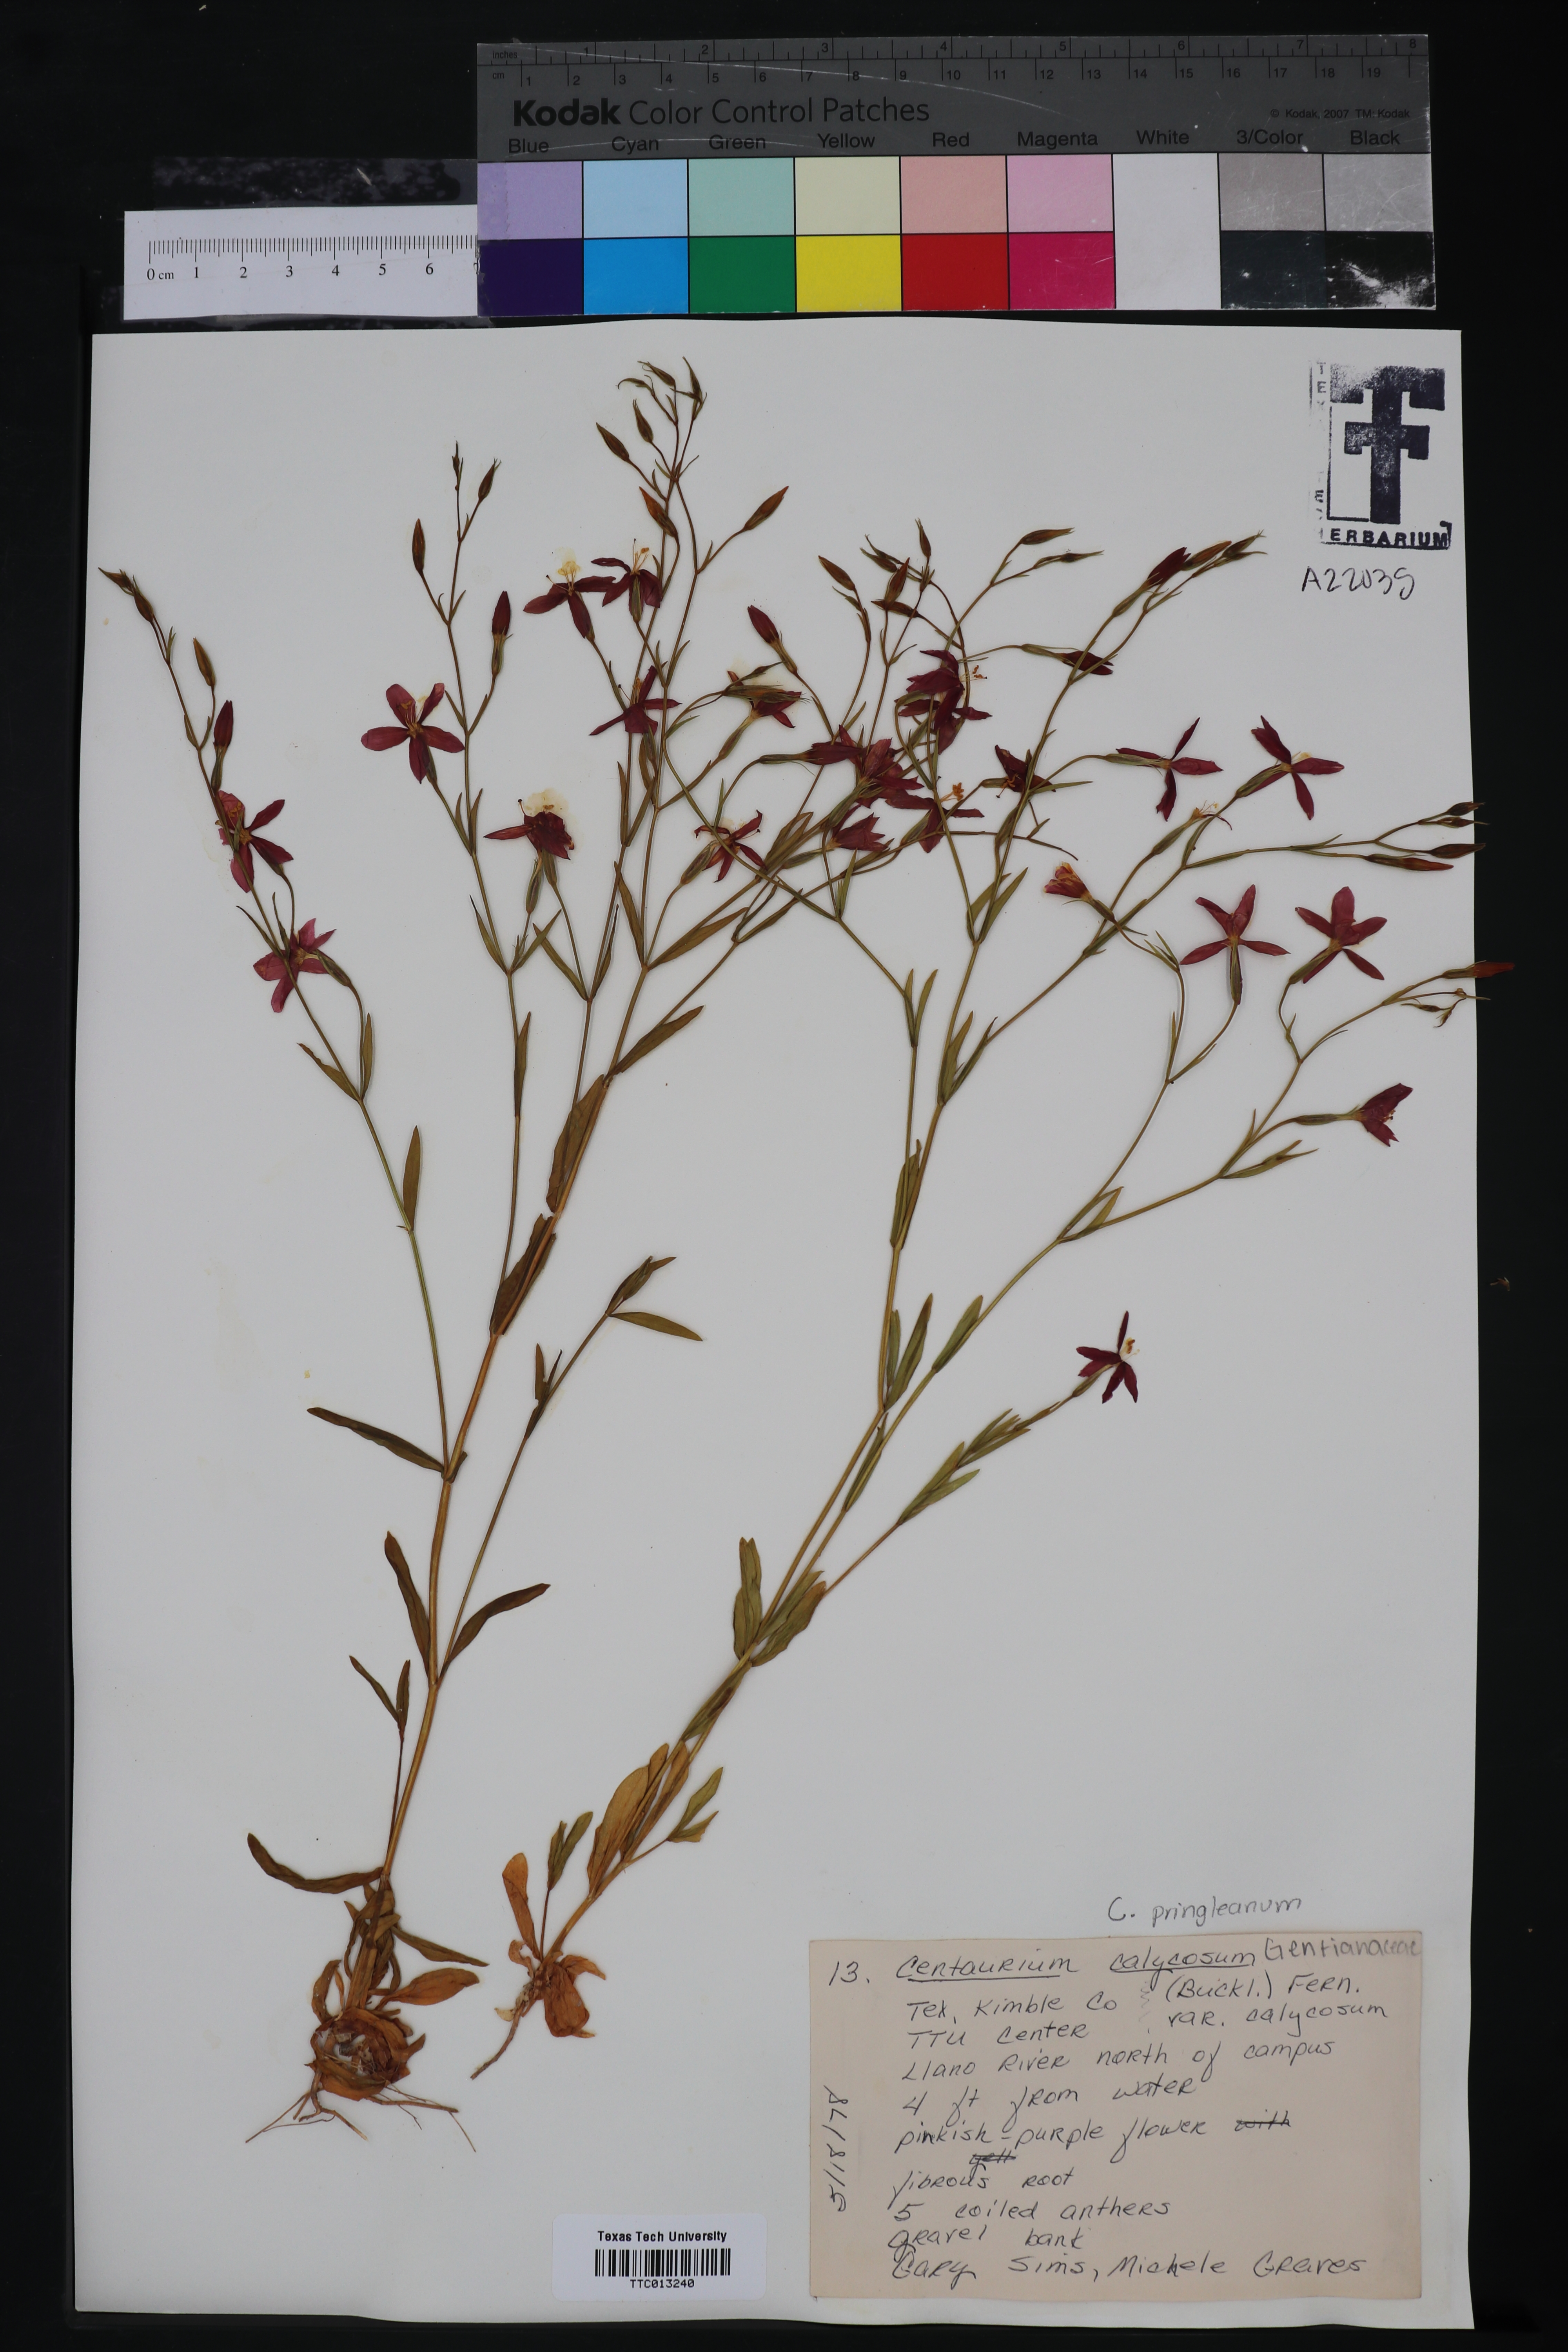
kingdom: Plantae
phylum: Tracheophyta
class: Magnoliopsida
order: Gentianales
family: Gentianaceae
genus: Zeltnera
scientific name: Zeltnera calycosa
